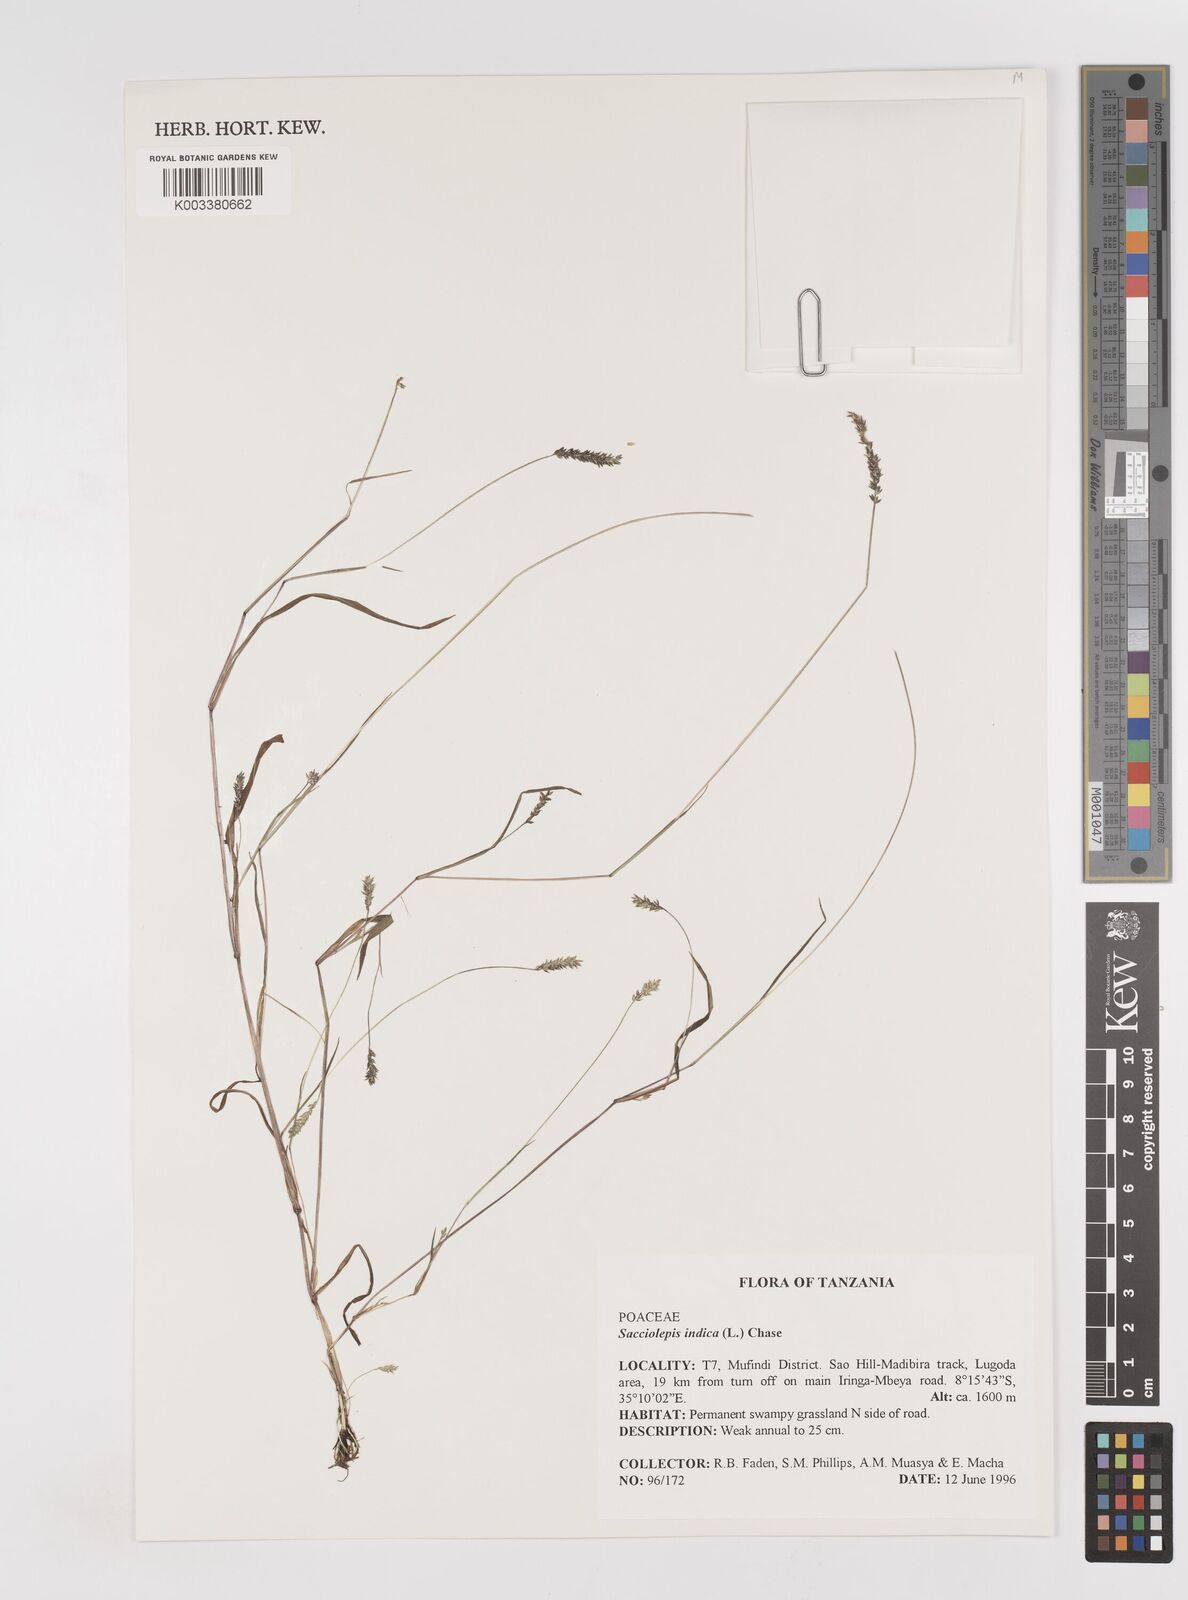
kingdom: Plantae
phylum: Tracheophyta
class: Liliopsida
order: Poales
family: Poaceae
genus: Sacciolepis
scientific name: Sacciolepis indica
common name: Glenwoodgrass
